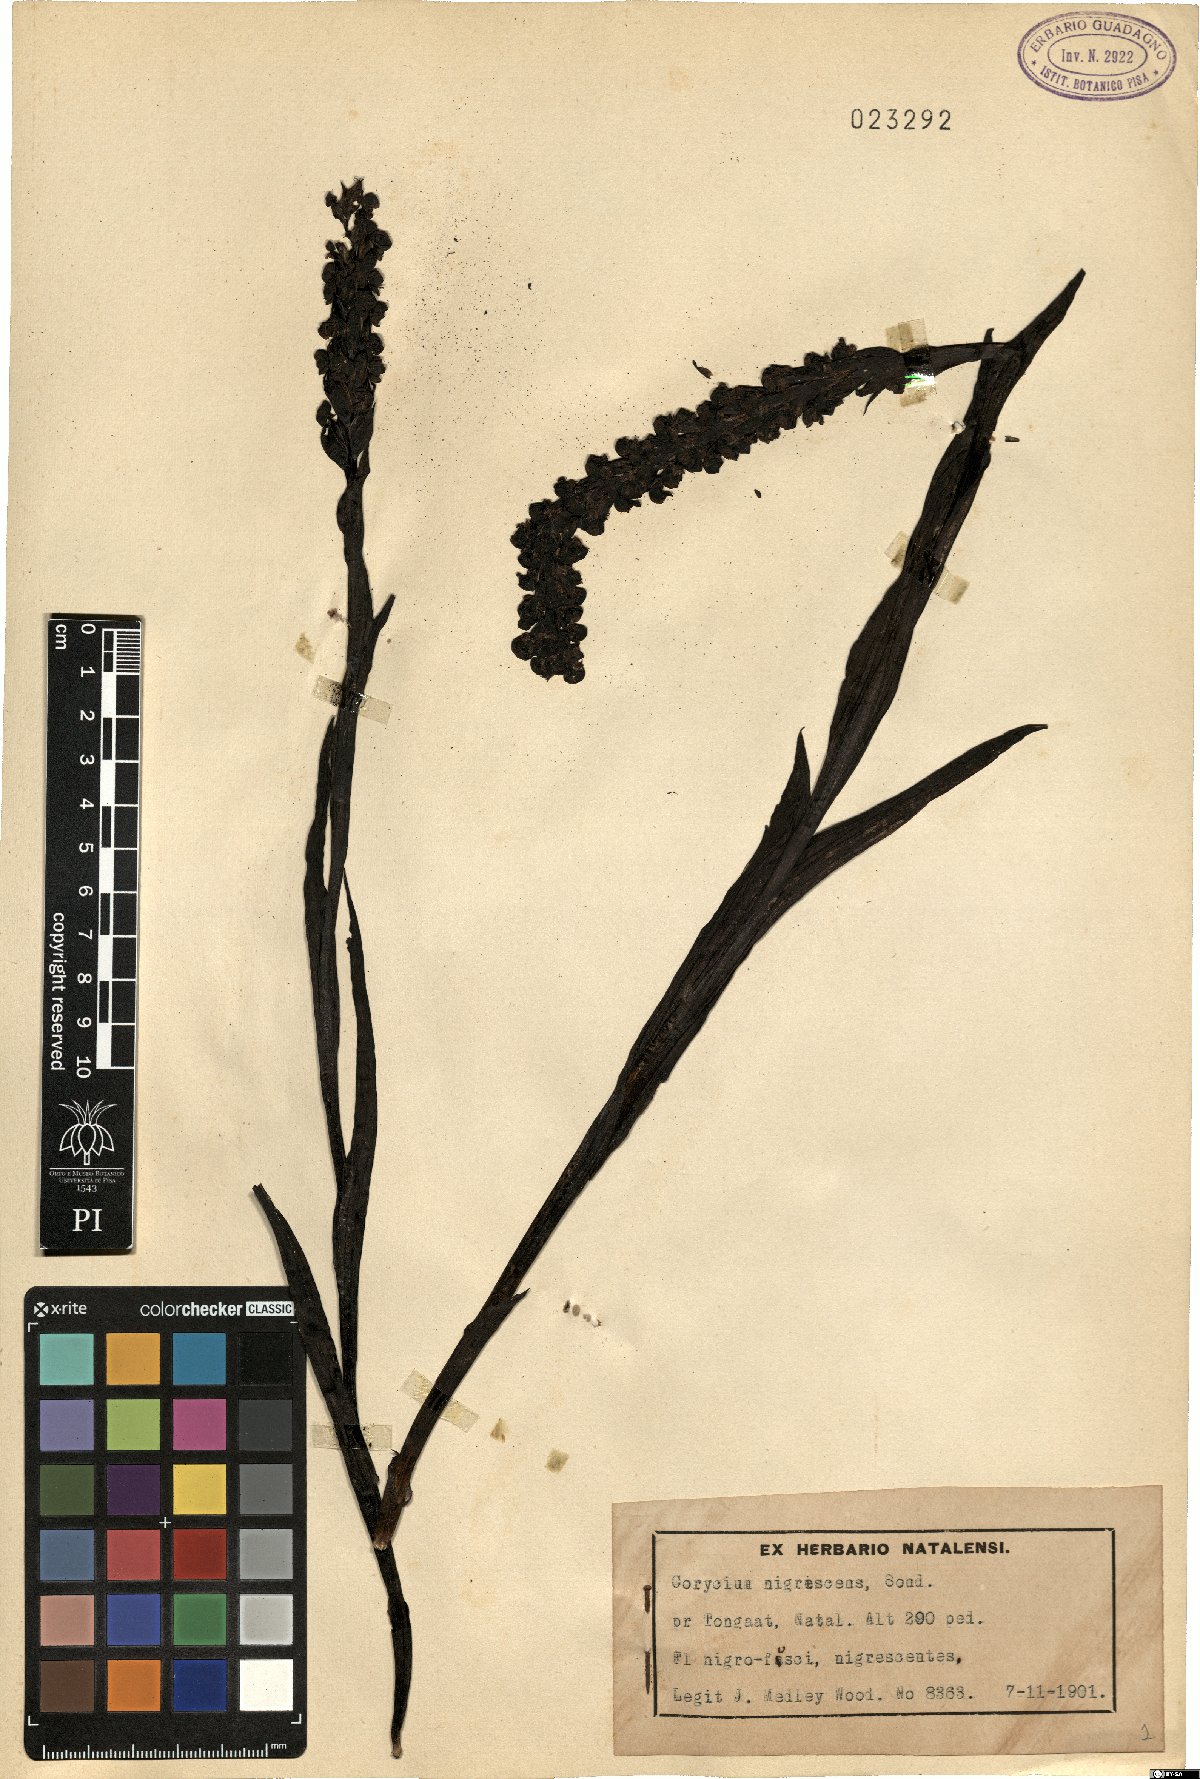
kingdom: Plantae
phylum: Tracheophyta
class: Liliopsida
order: Asparagales
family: Orchidaceae
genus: Corycium
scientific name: Corycium nigrescens
